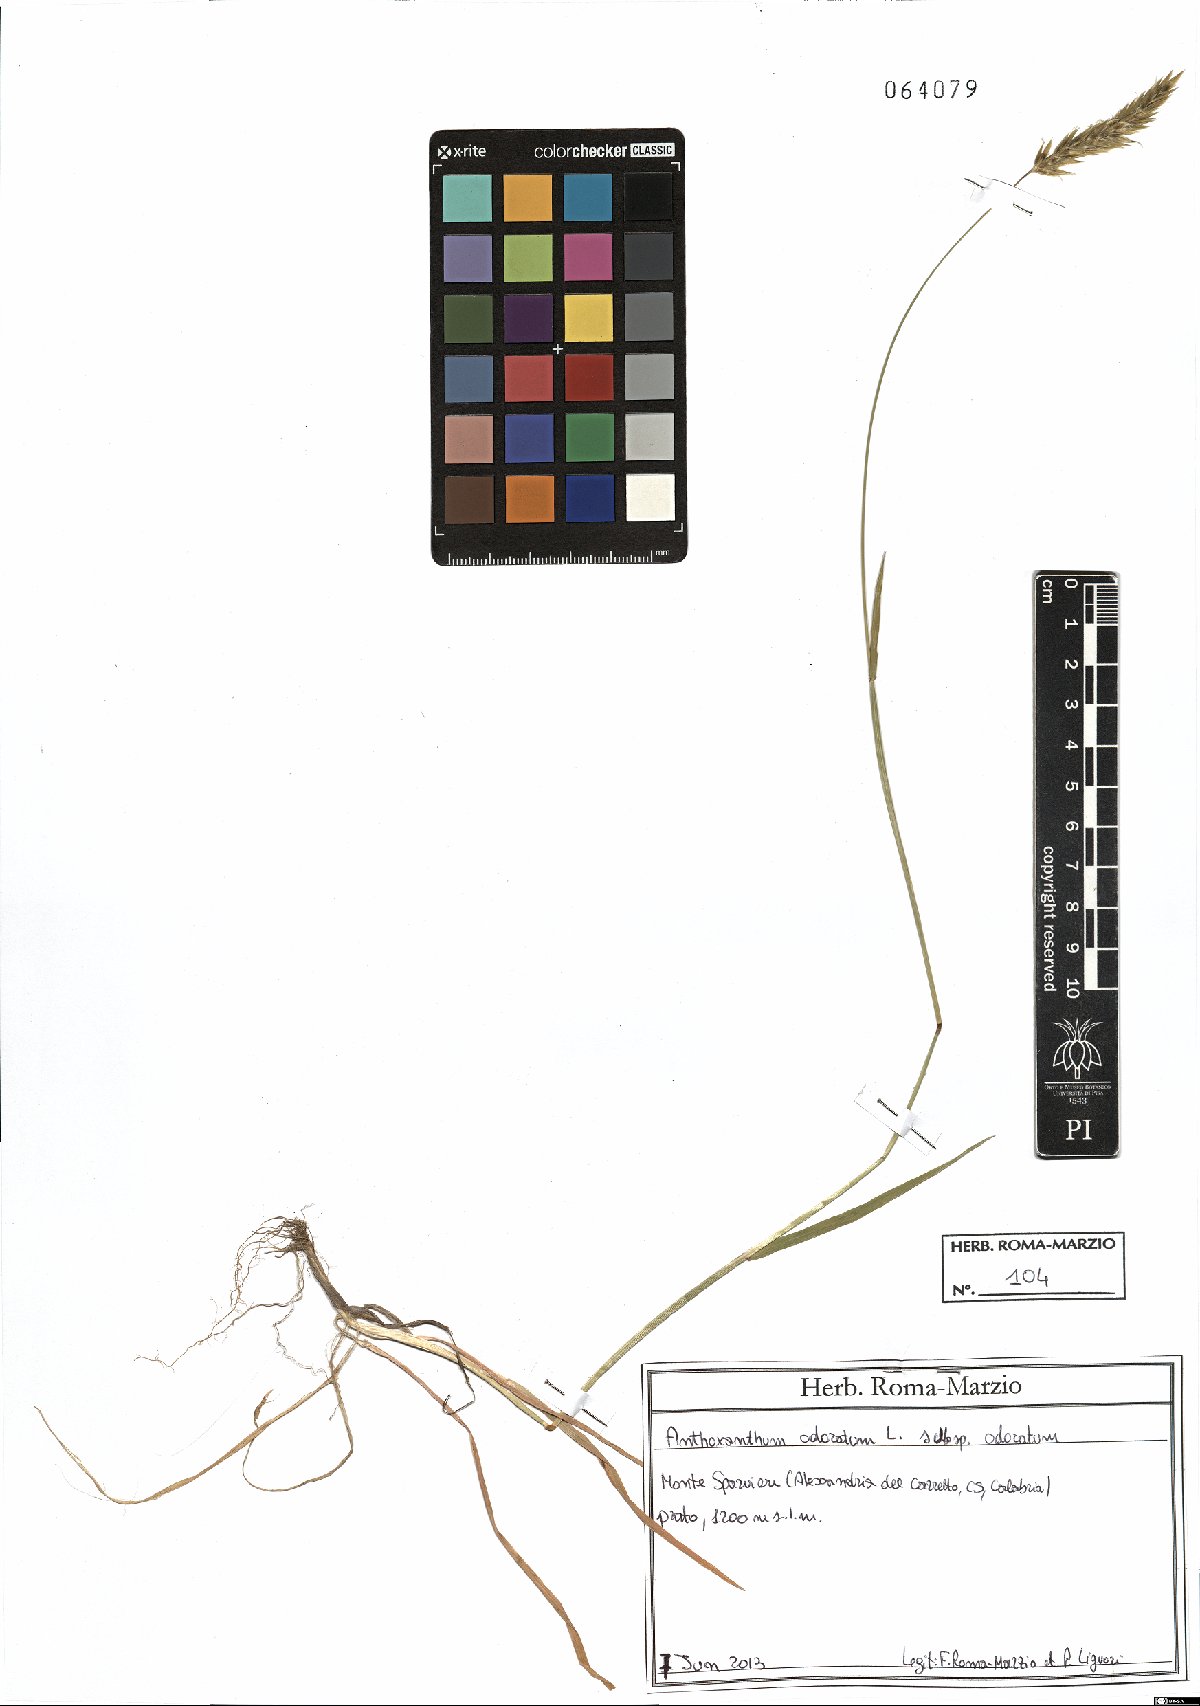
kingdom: Plantae
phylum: Tracheophyta
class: Liliopsida
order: Poales
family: Poaceae
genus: Anthoxanthum
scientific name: Anthoxanthum odoratum
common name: Sweet vernalgrass
